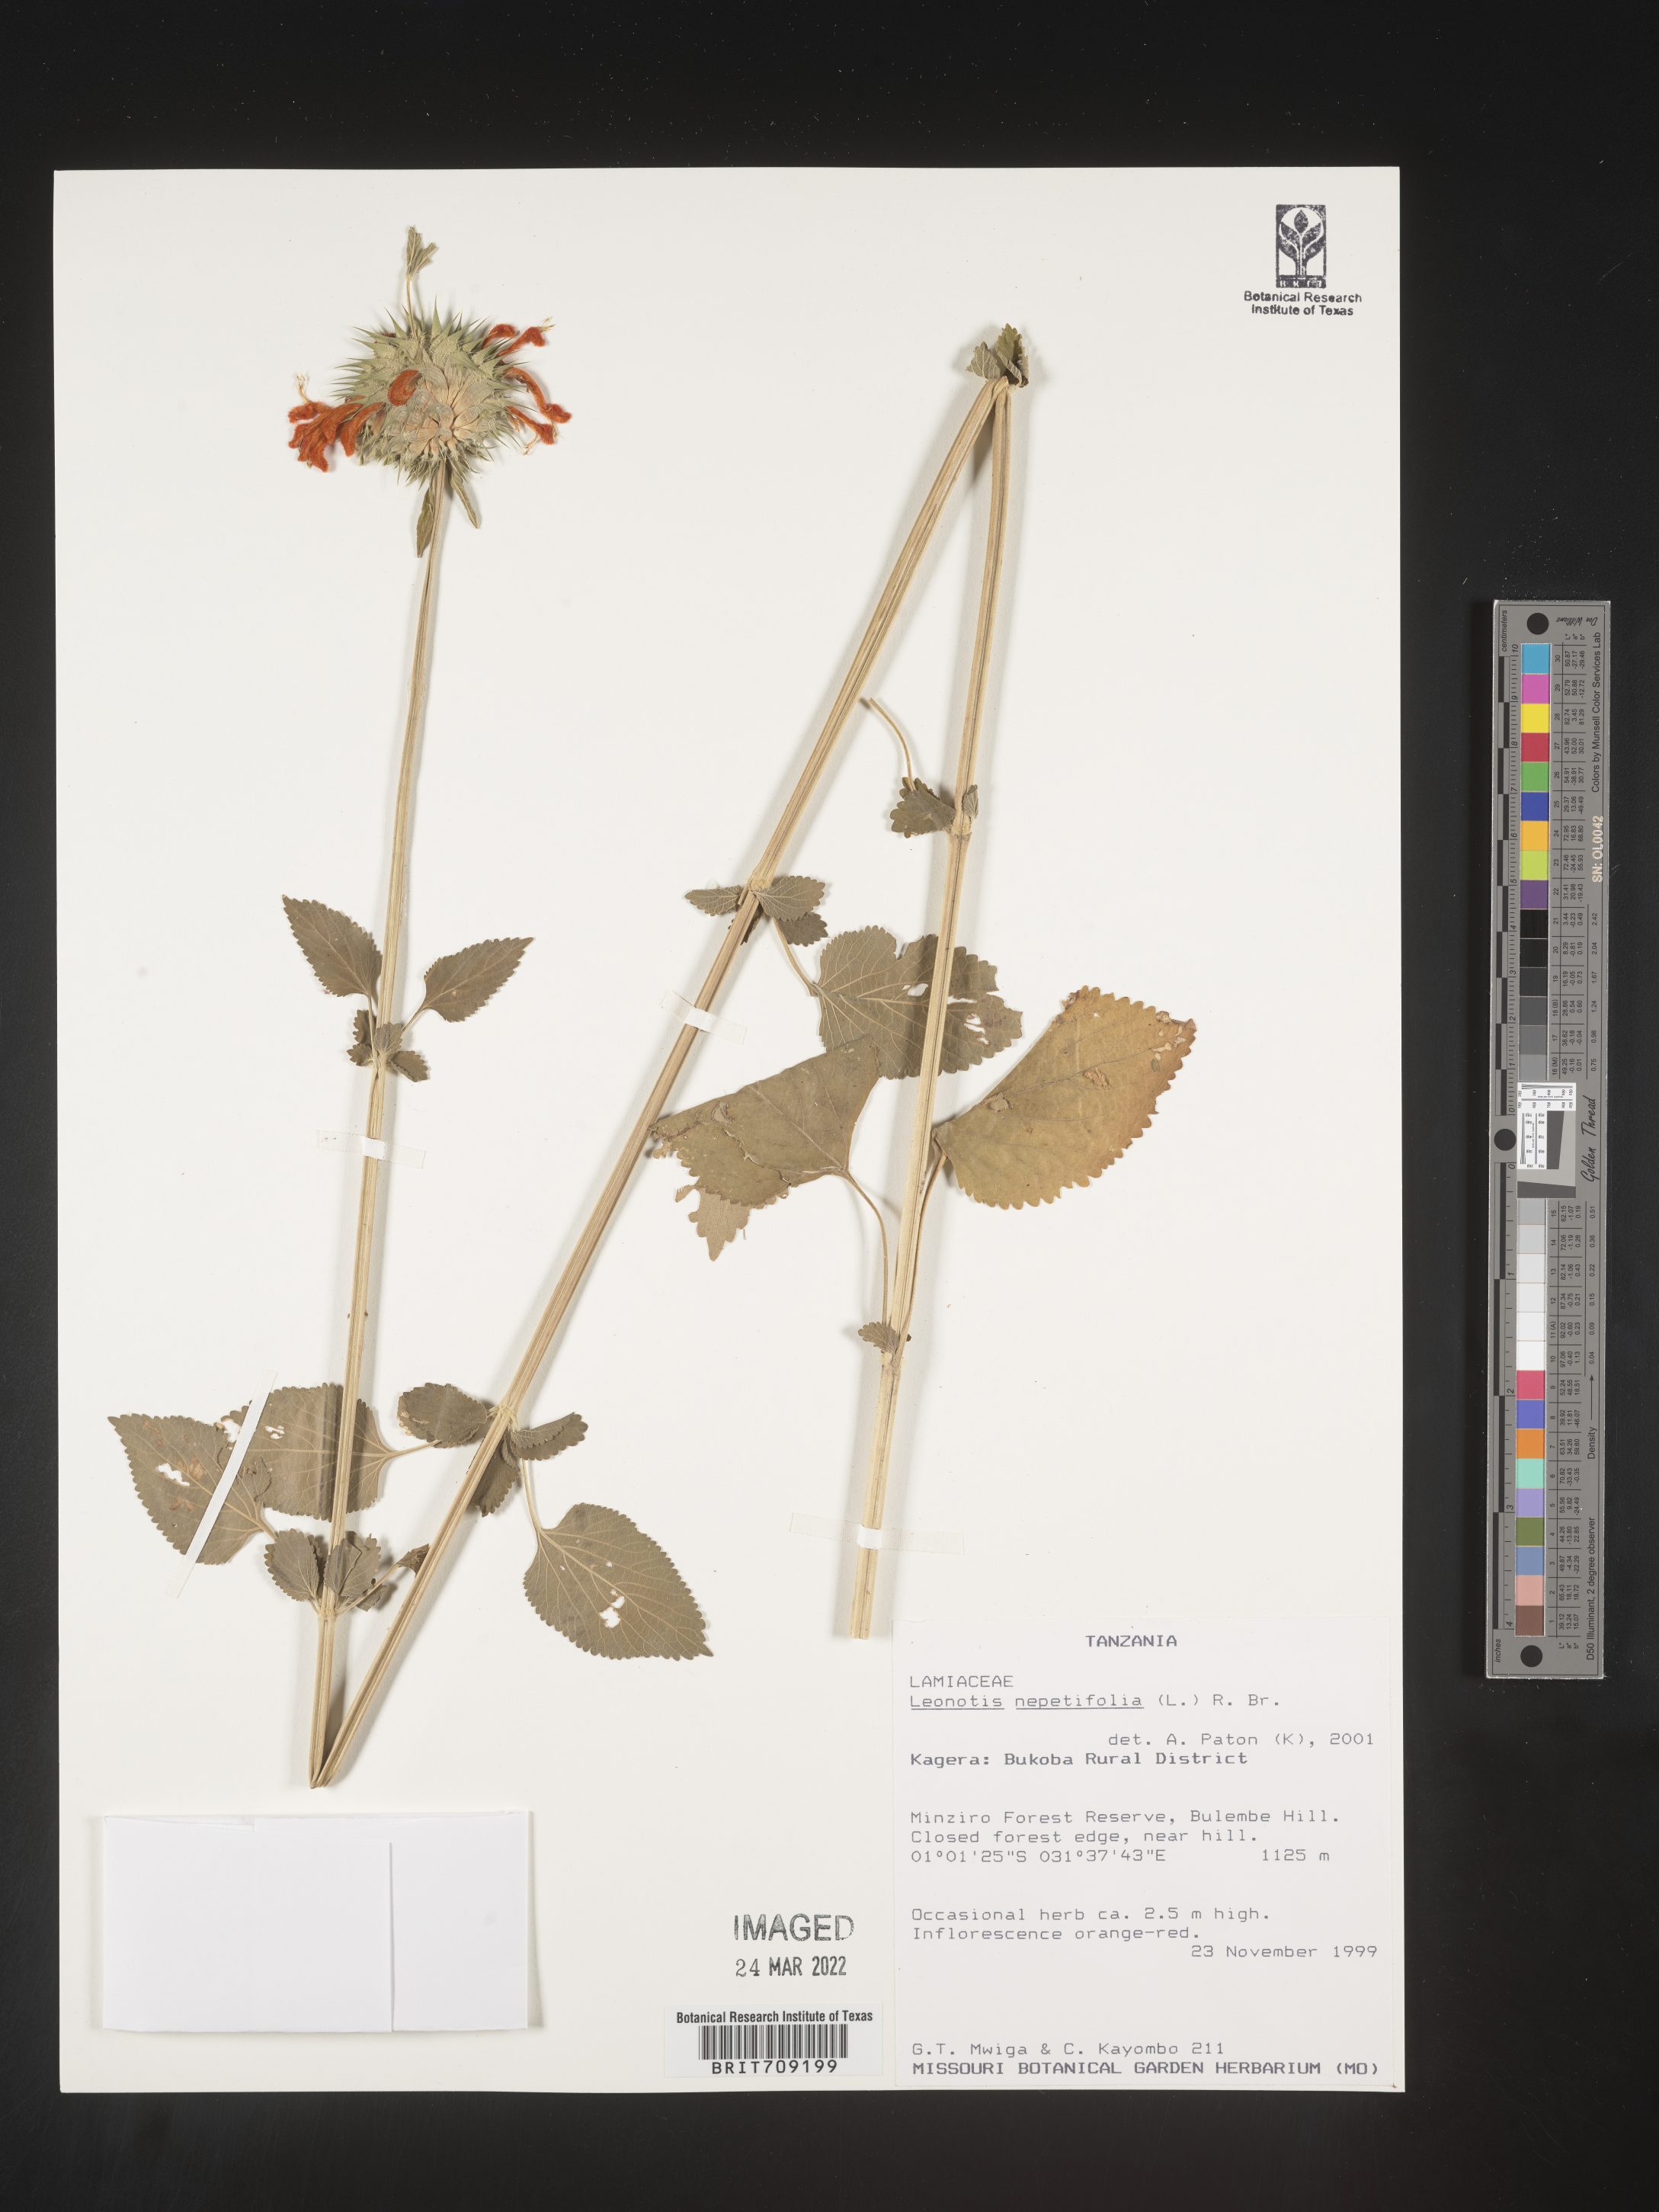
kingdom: Plantae
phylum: Tracheophyta
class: Magnoliopsida
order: Lamiales
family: Lamiaceae
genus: Leonotis
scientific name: Leonotis
